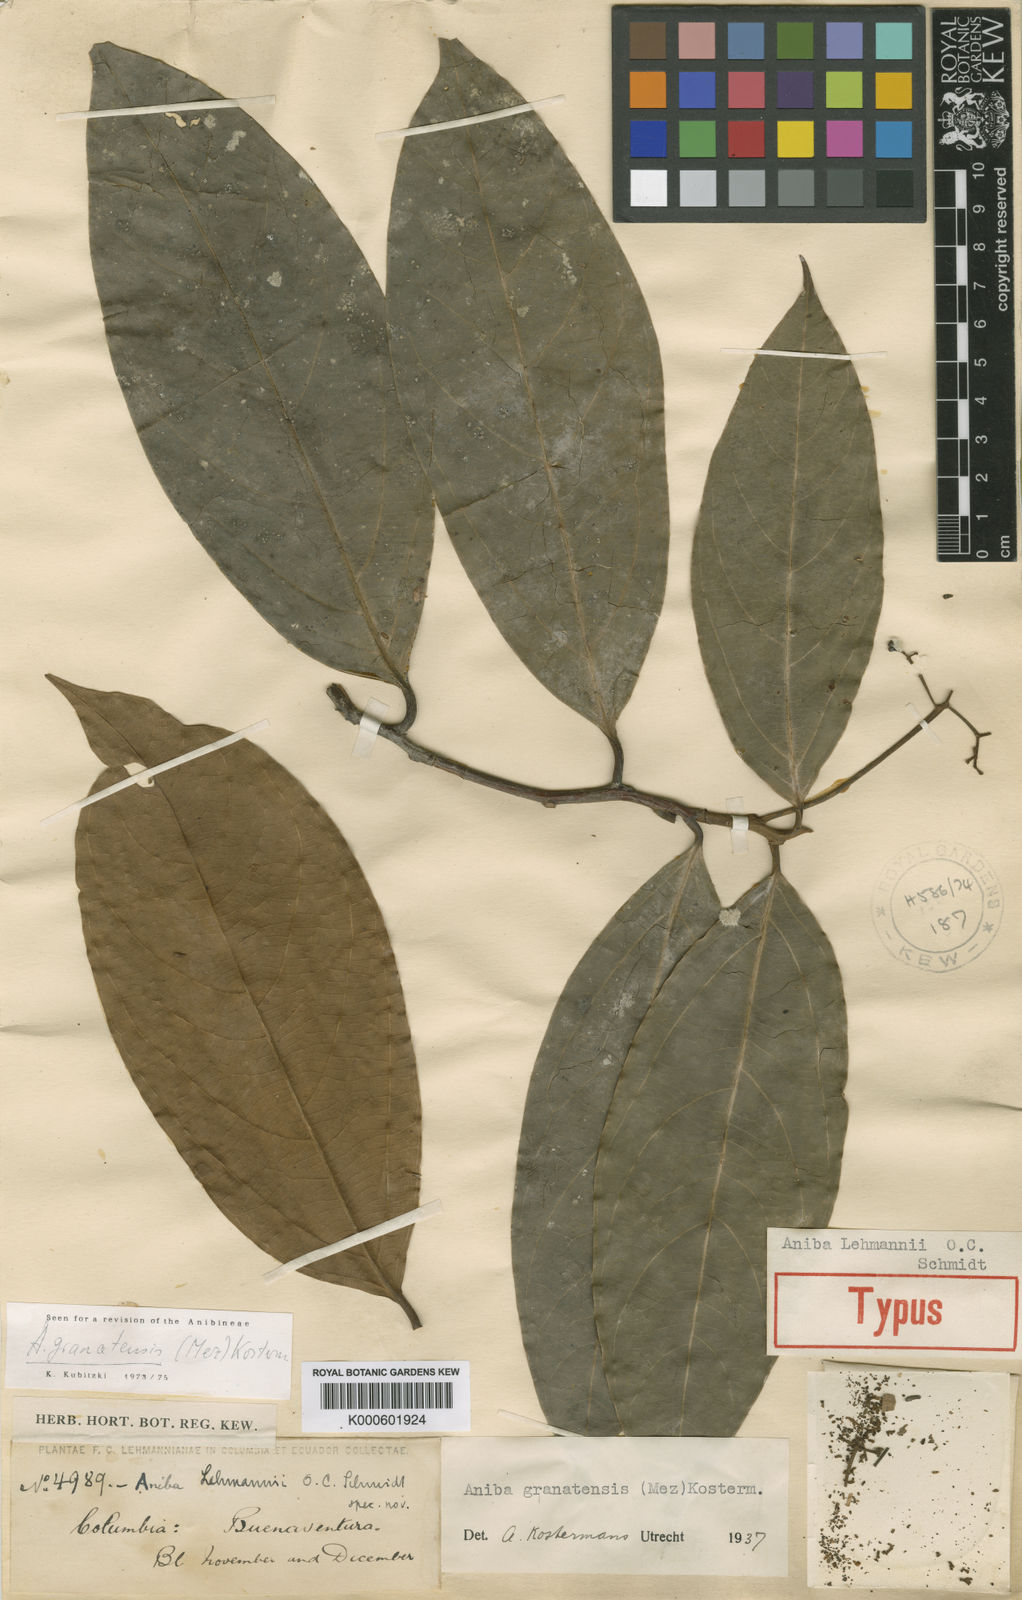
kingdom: Plantae
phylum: Tracheophyta
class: Magnoliopsida
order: Laurales
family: Lauraceae
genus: Aiouea
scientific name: Aiouea lehmannii
